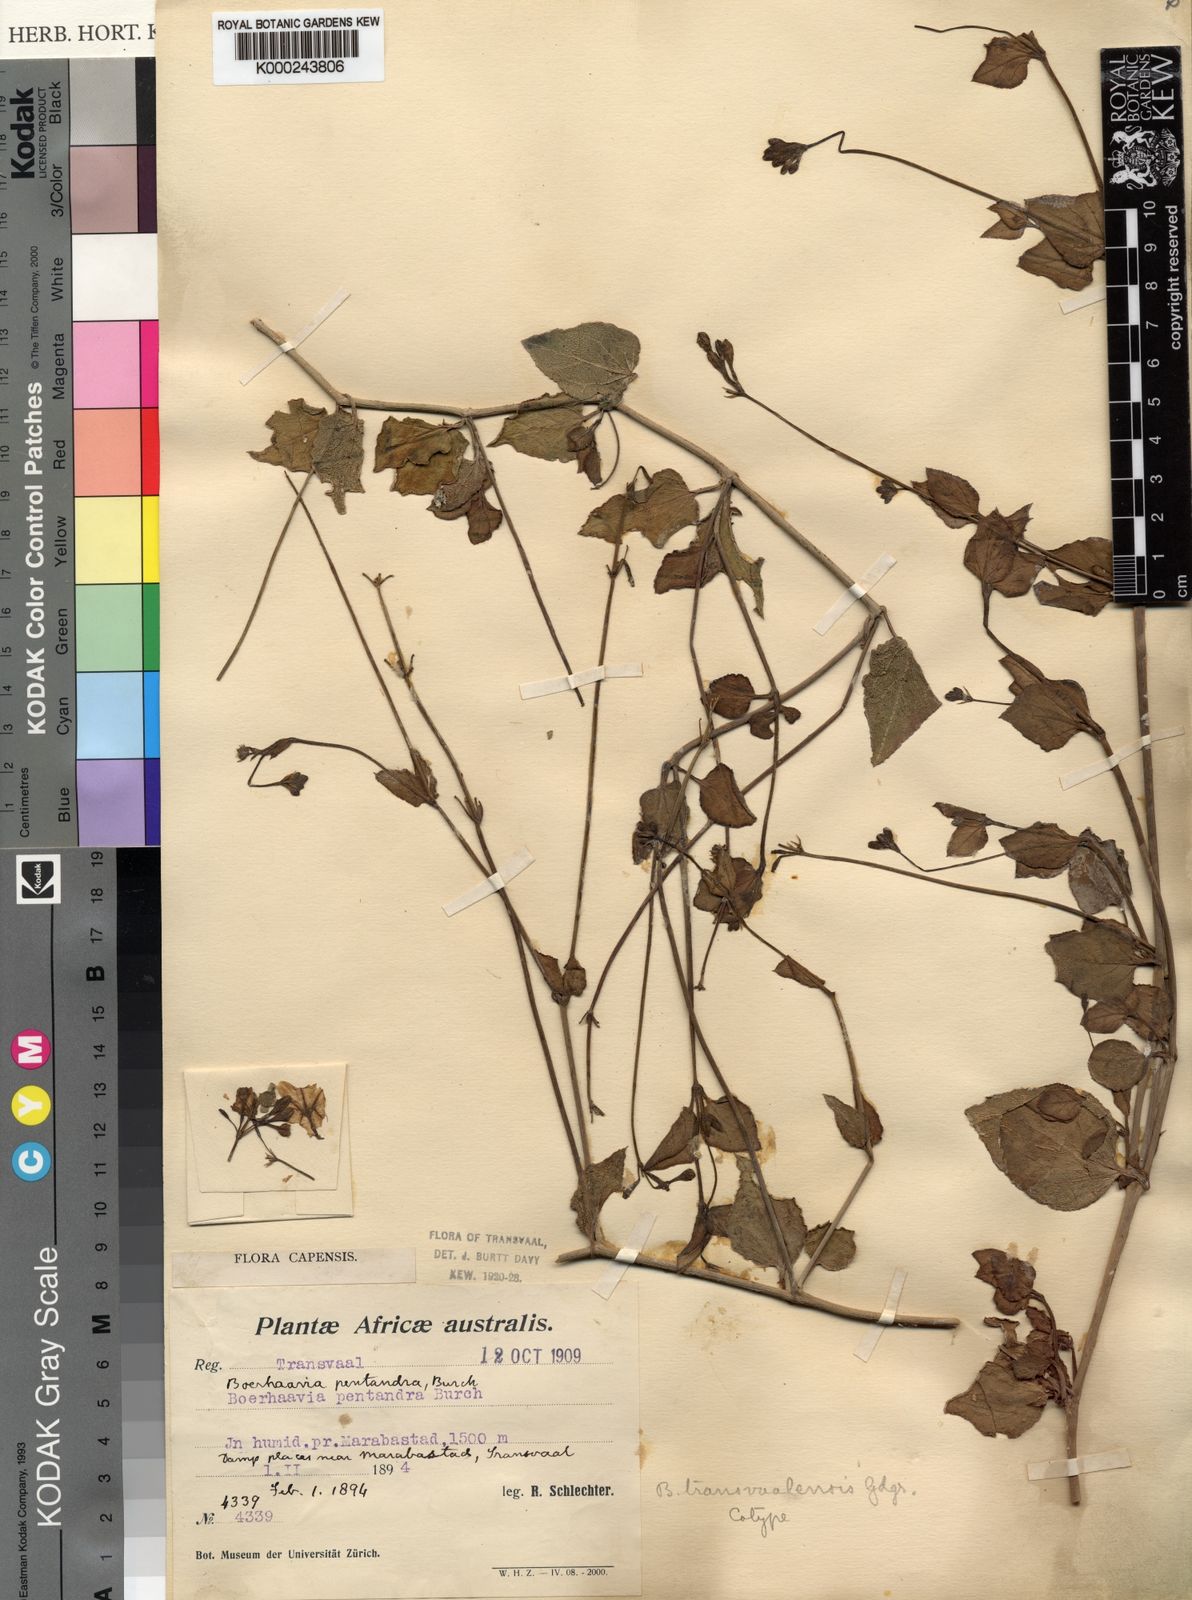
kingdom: Plantae
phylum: Tracheophyta
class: Magnoliopsida
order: Caryophyllales
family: Nyctaginaceae
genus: Commicarpus
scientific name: Commicarpus pentandrus
